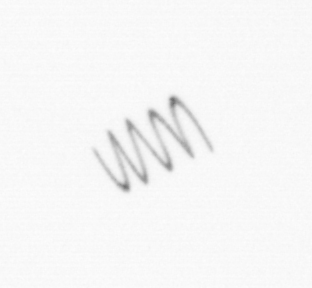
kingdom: Chromista
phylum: Ochrophyta
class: Bacillariophyceae
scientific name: Bacillariophyceae
